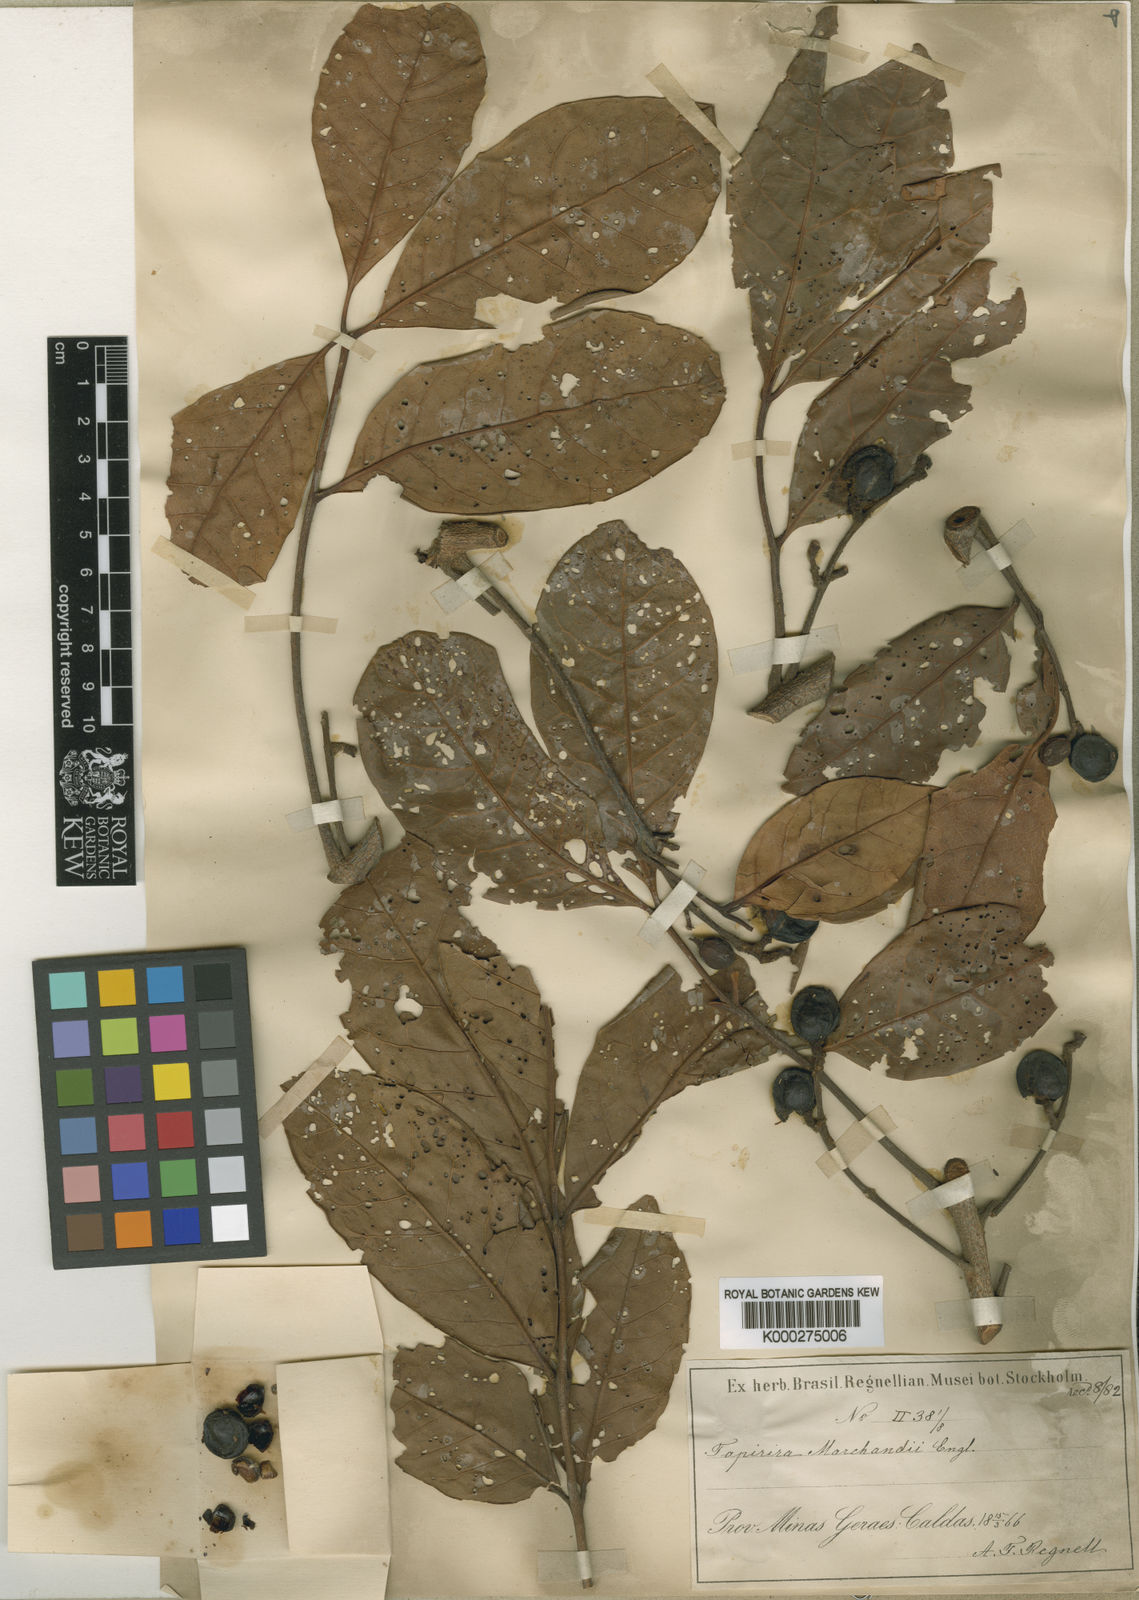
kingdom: Plantae
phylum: Tracheophyta
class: Magnoliopsida
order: Sapindales
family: Anacardiaceae
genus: Tapirira
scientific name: Tapirira obtusa
